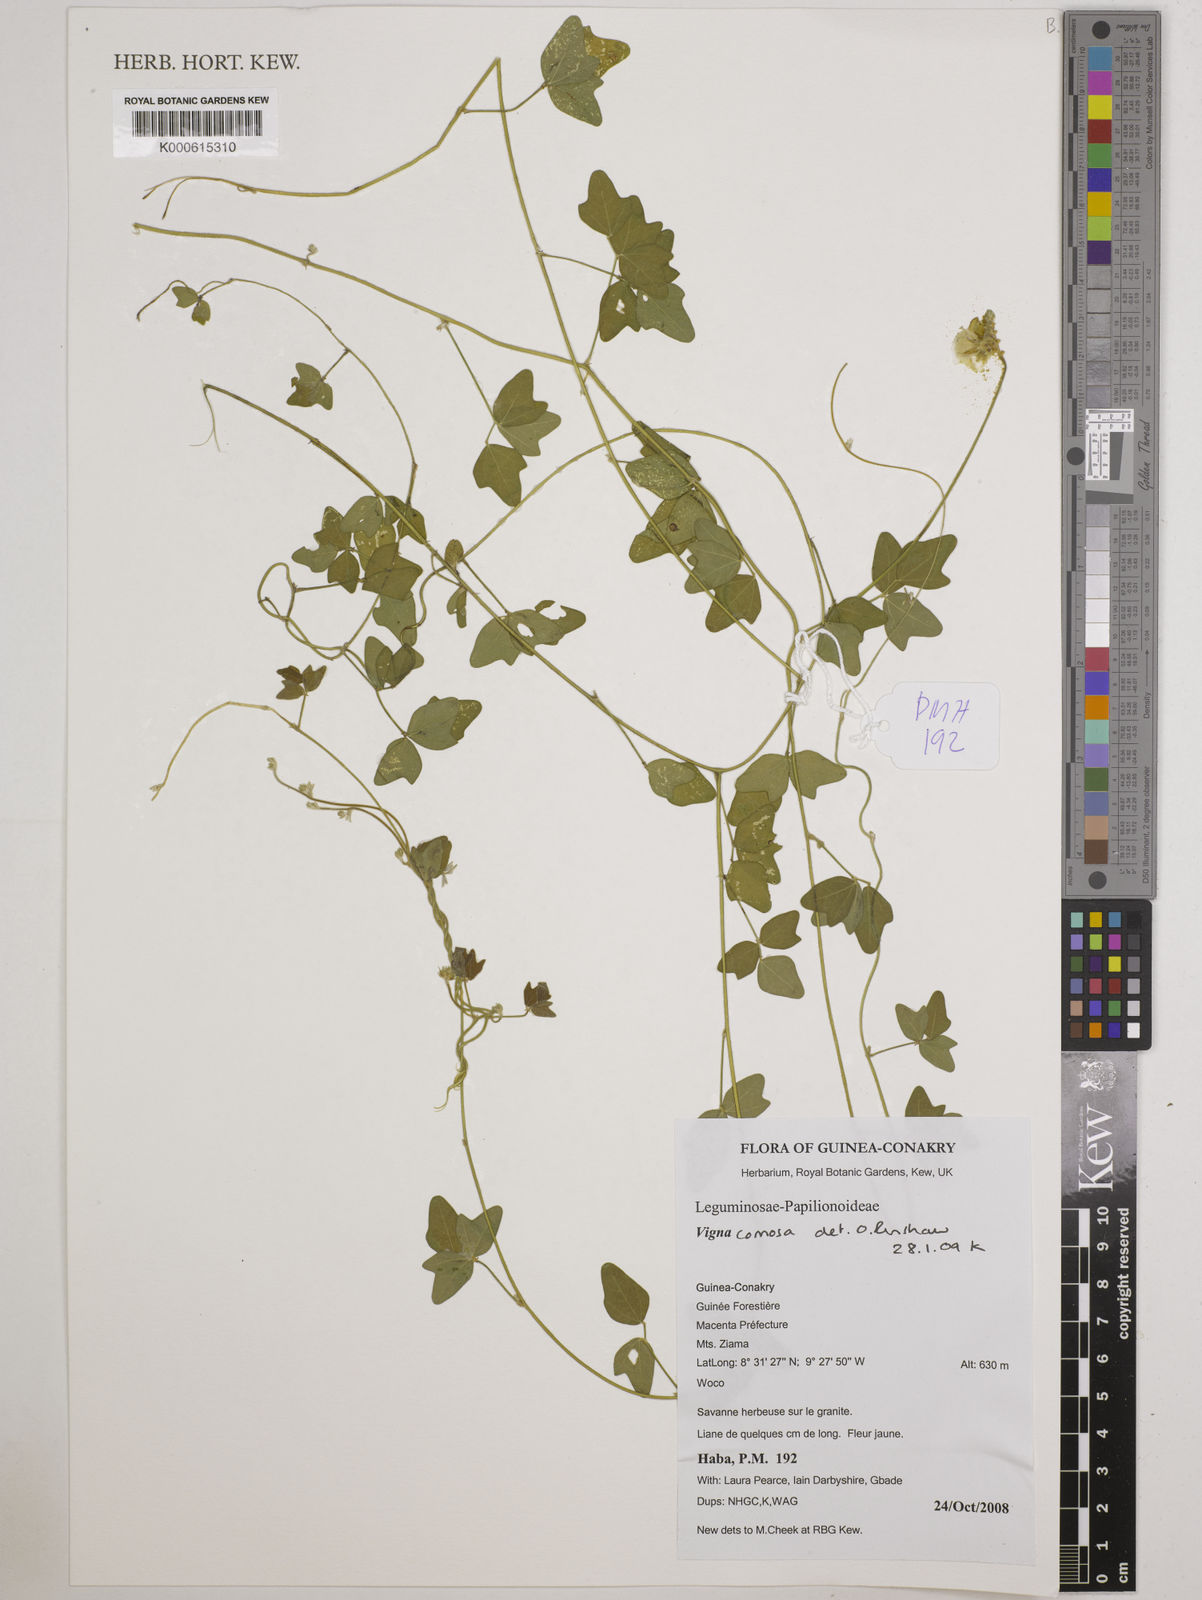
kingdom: Plantae
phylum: Tracheophyta
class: Magnoliopsida
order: Fabales
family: Fabaceae
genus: Vigna
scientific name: Vigna comosa
